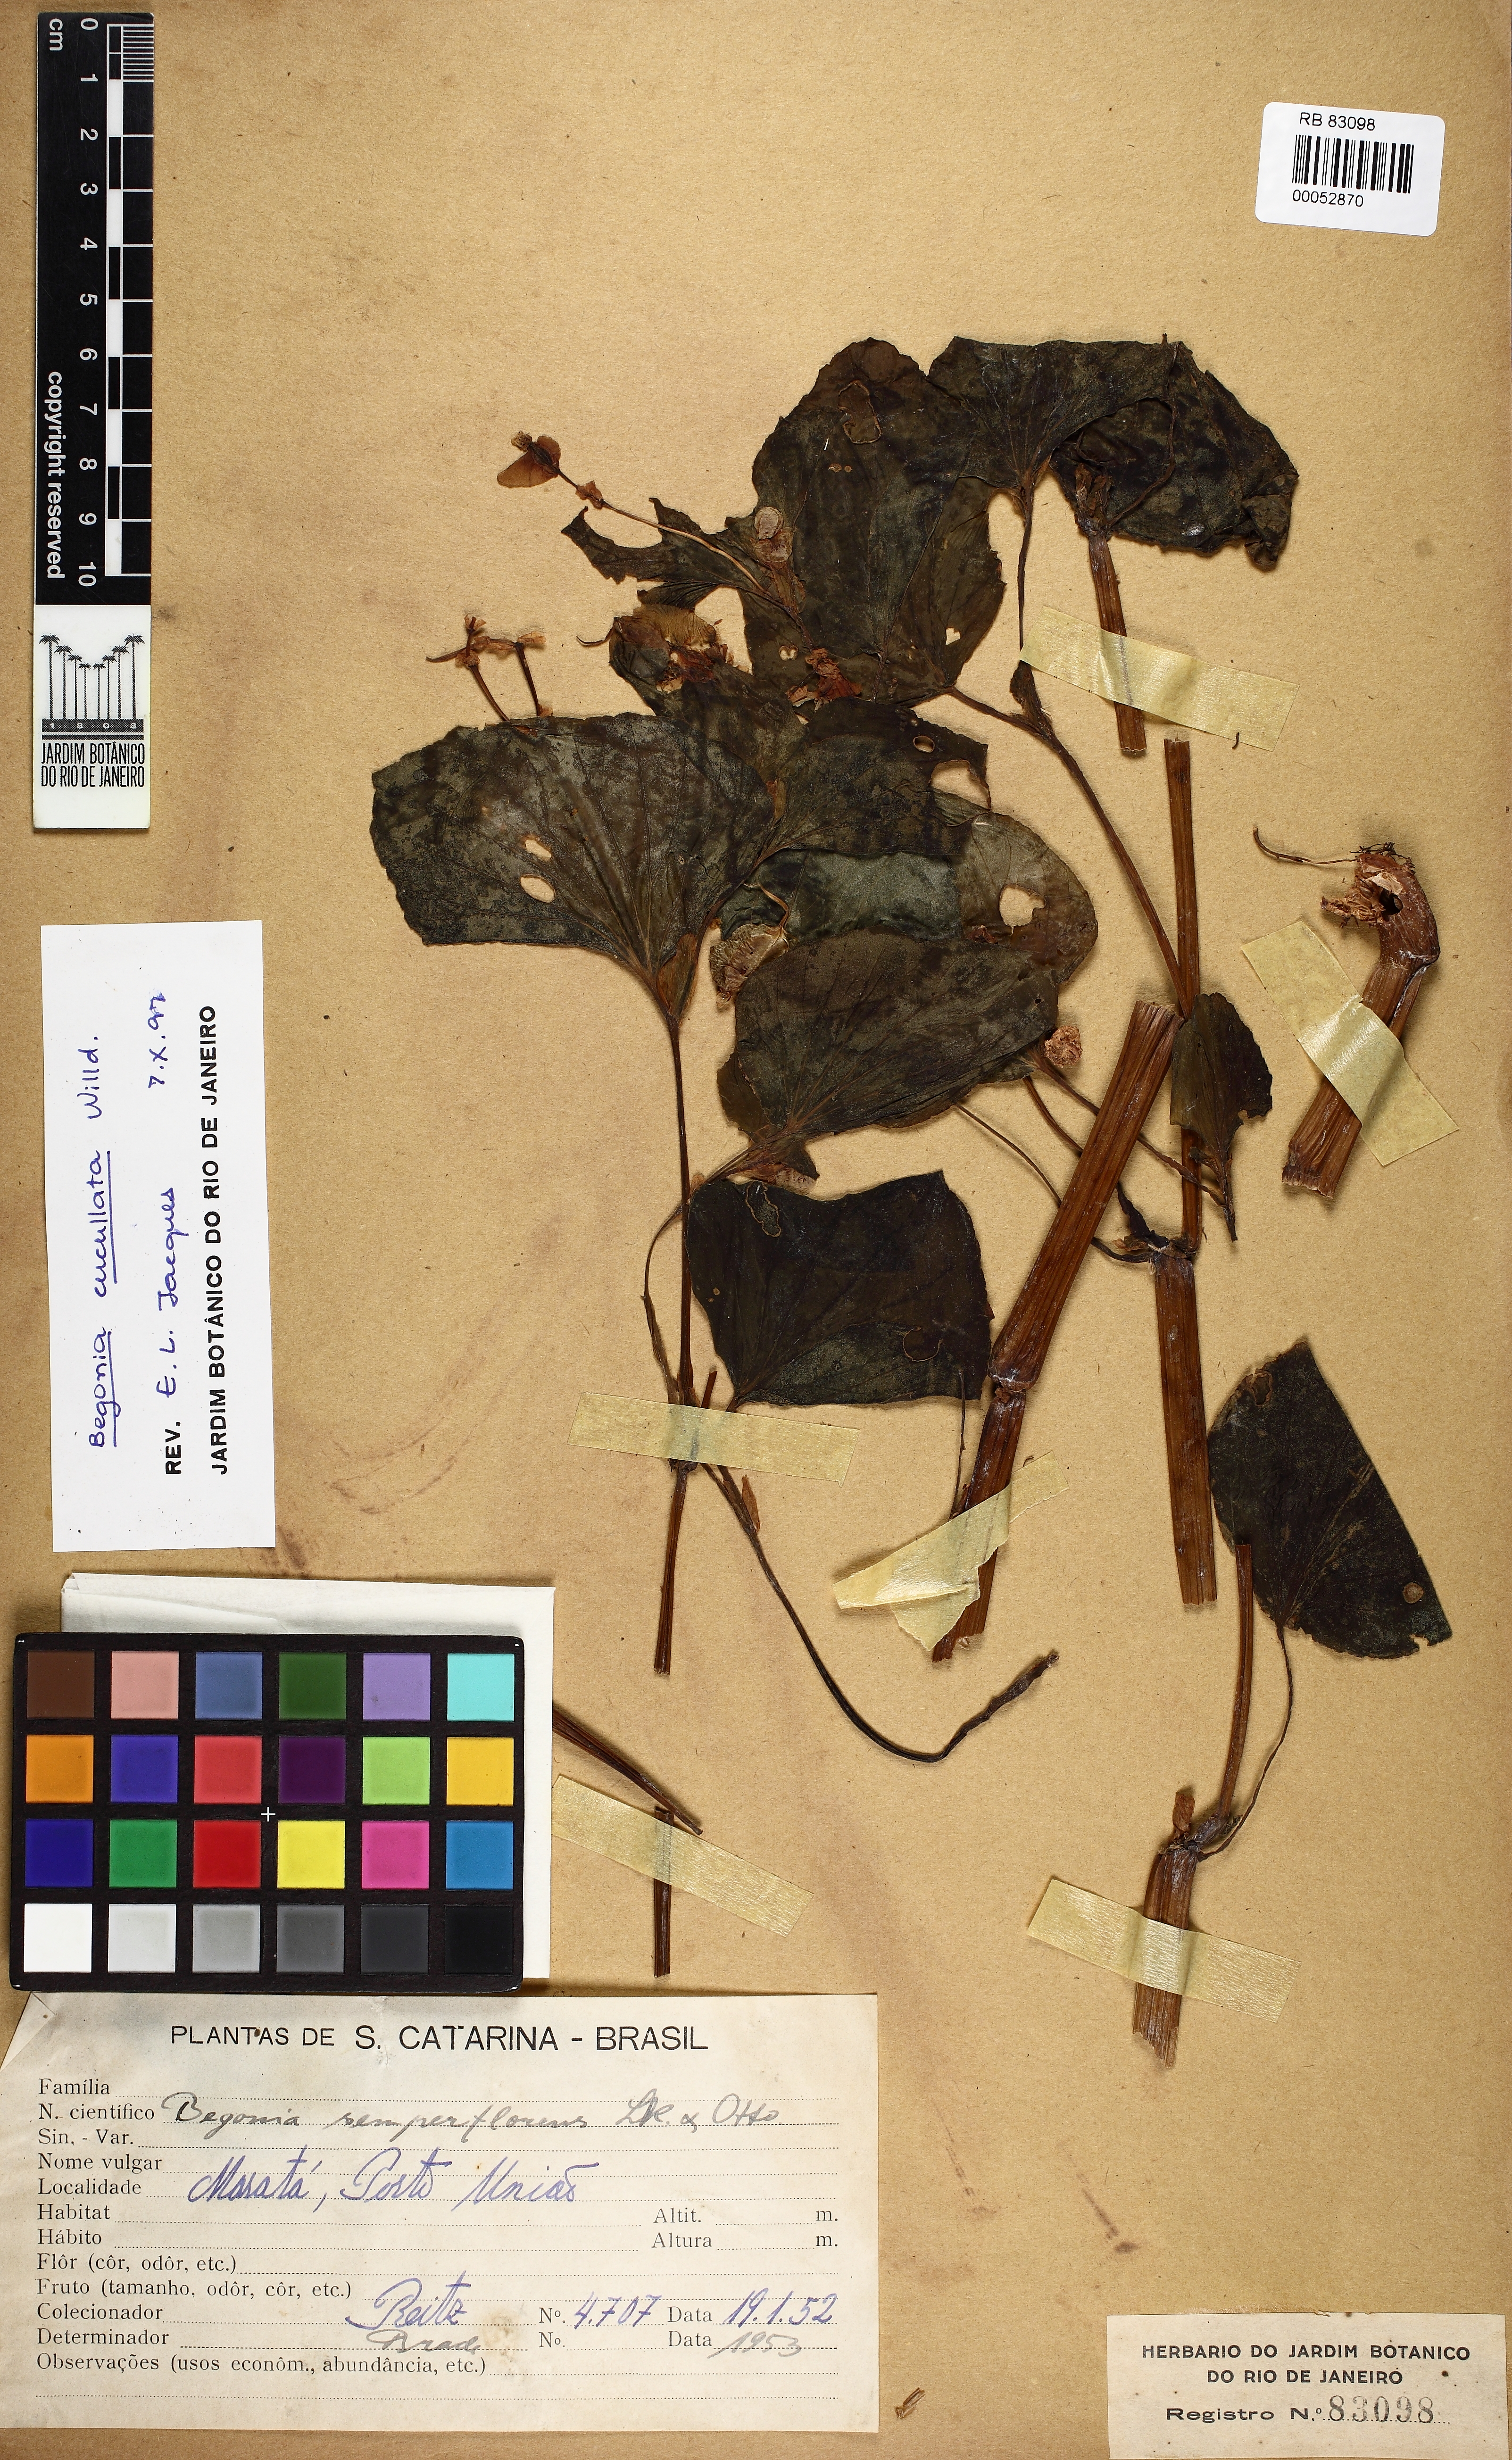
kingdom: Plantae
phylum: Tracheophyta
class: Magnoliopsida
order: Cucurbitales
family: Begoniaceae
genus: Begonia
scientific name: Begonia cucullata
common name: Clubbed begonia
